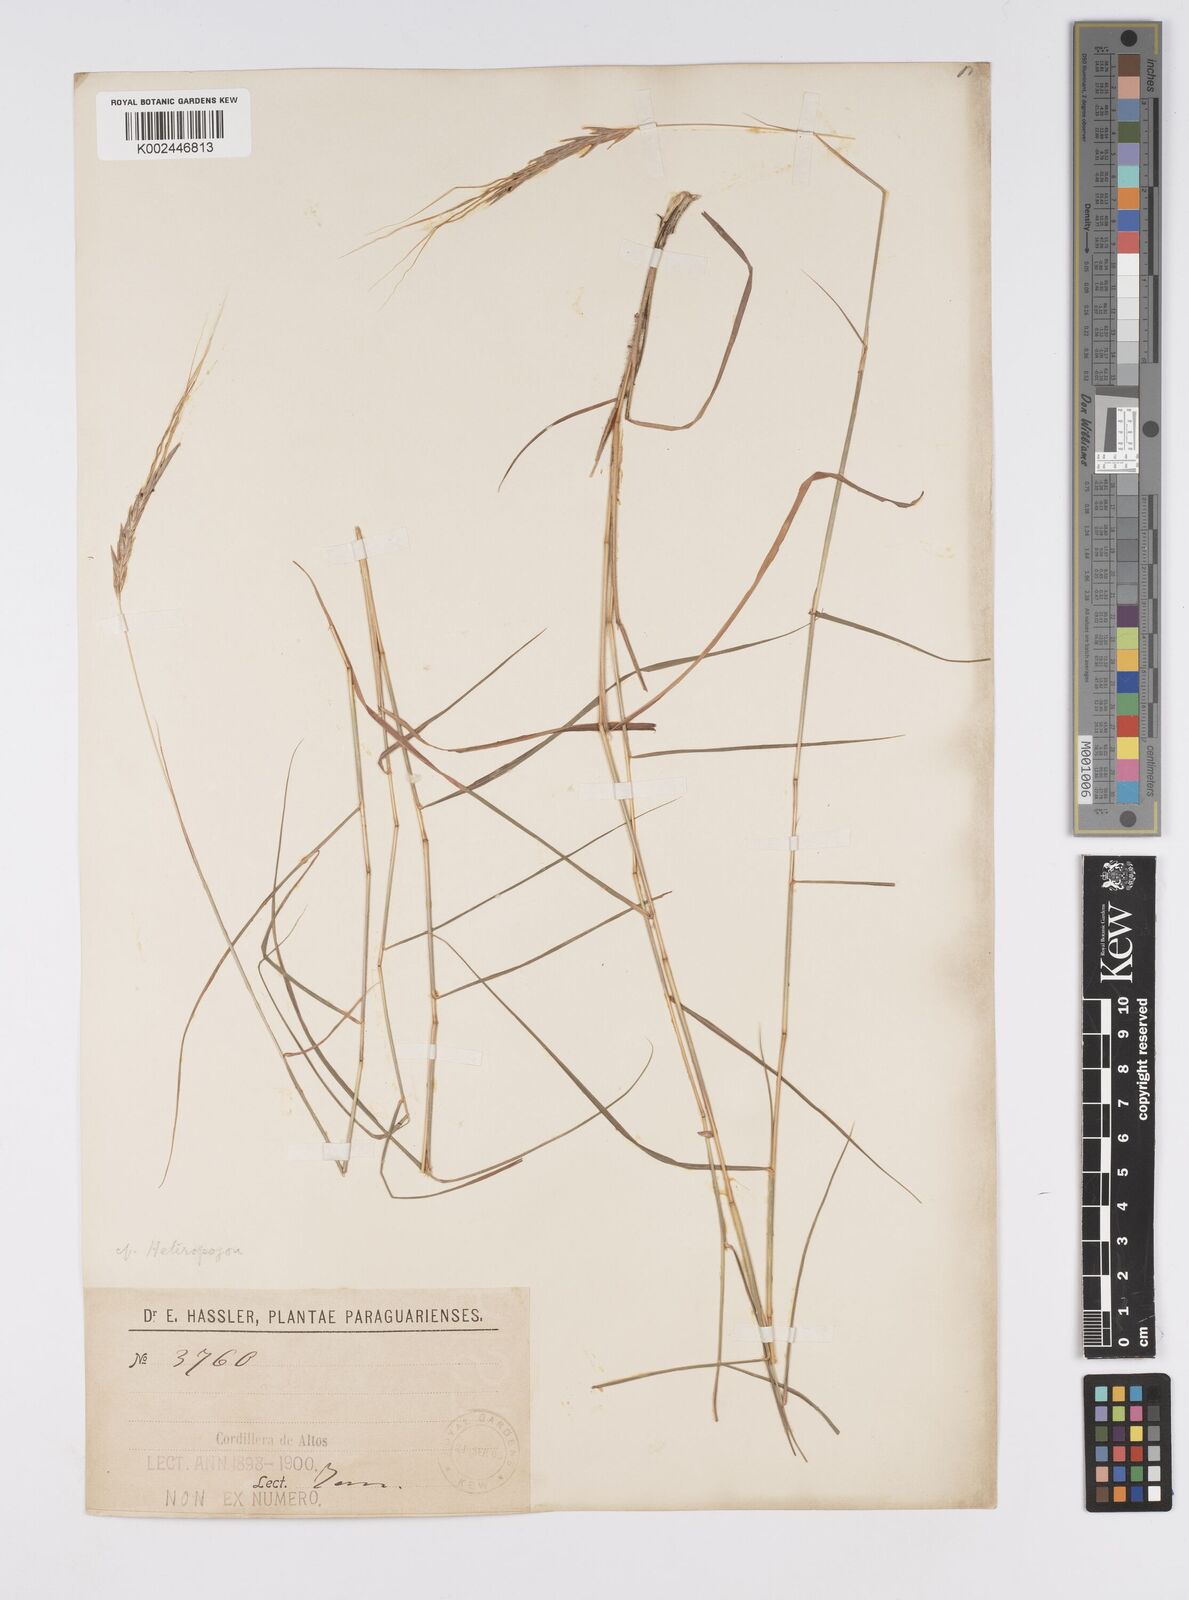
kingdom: Plantae
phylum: Tracheophyta
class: Liliopsida
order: Poales
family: Poaceae
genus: Agenium
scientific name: Agenium leptocladum
